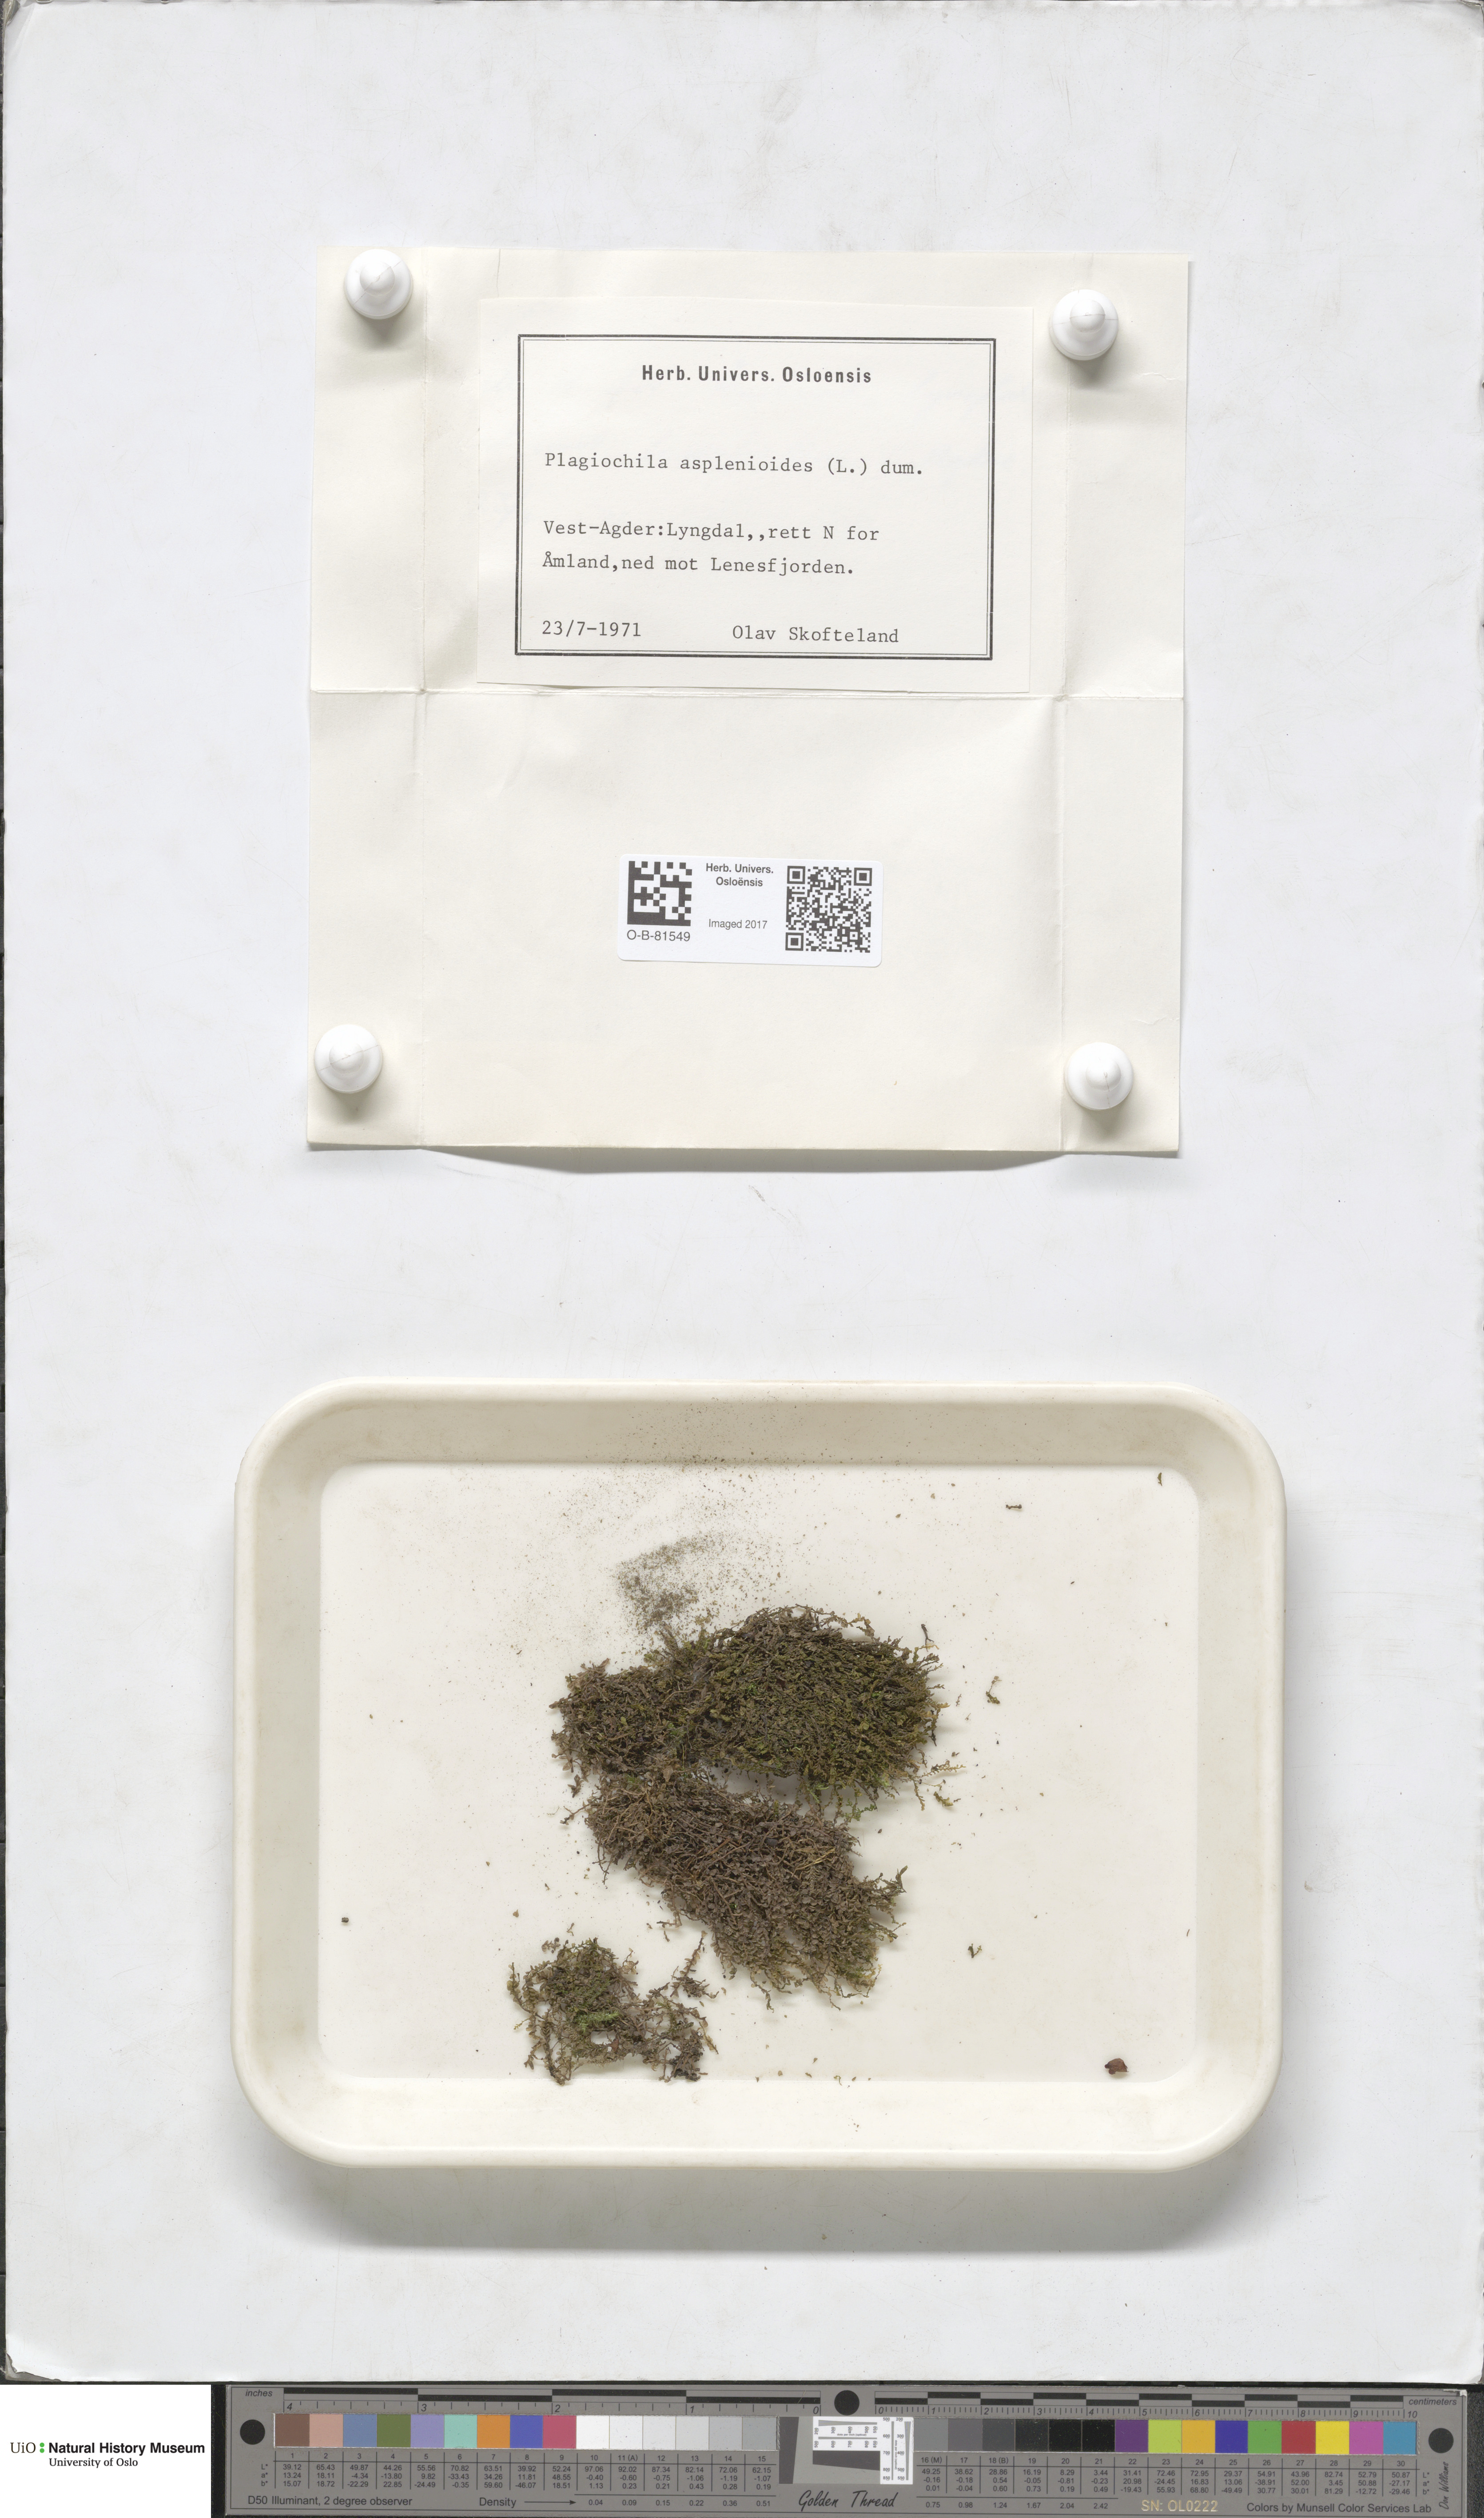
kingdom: Plantae
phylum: Marchantiophyta
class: Jungermanniopsida
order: Jungermanniales
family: Plagiochilaceae
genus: Plagiochila
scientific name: Plagiochila asplenioides
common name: Greater featherwort
